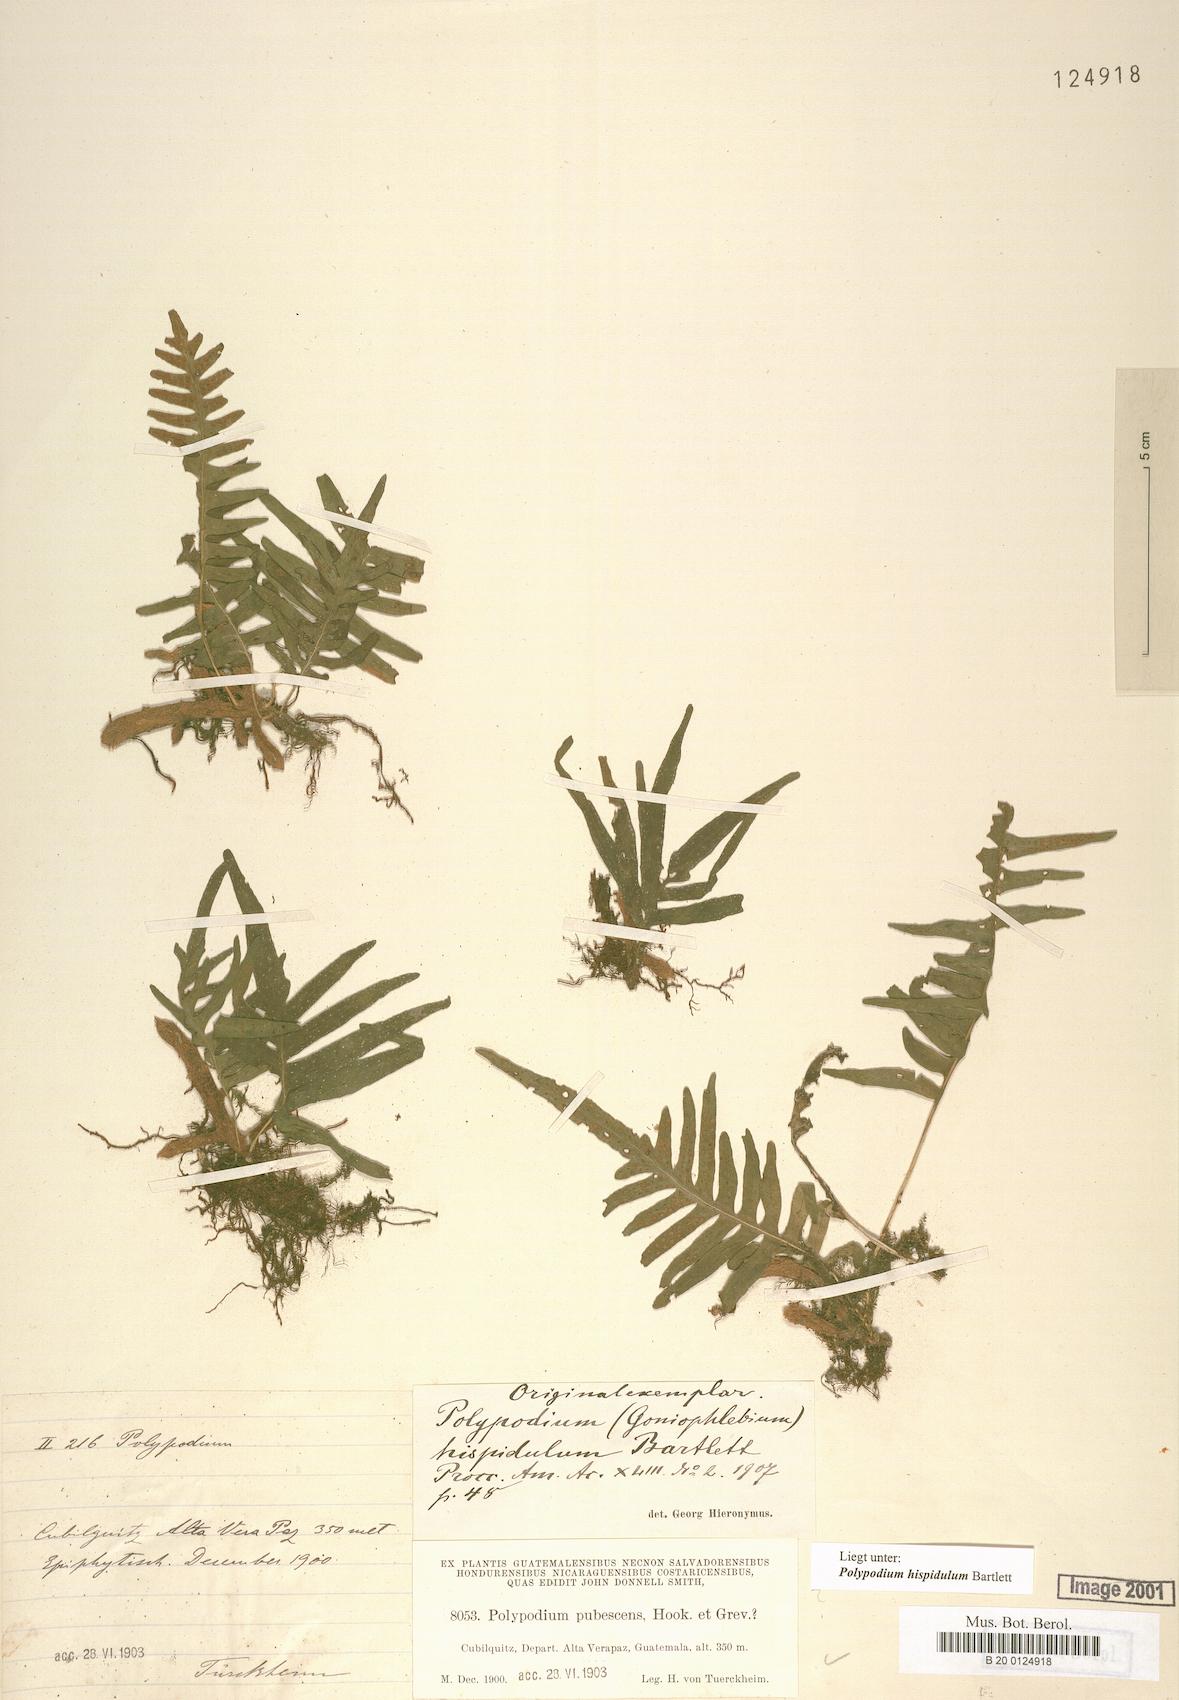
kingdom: Plantae
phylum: Tracheophyta
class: Polypodiopsida
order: Polypodiales
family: Polypodiaceae
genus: Polypodium
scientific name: Polypodium hispidulum
